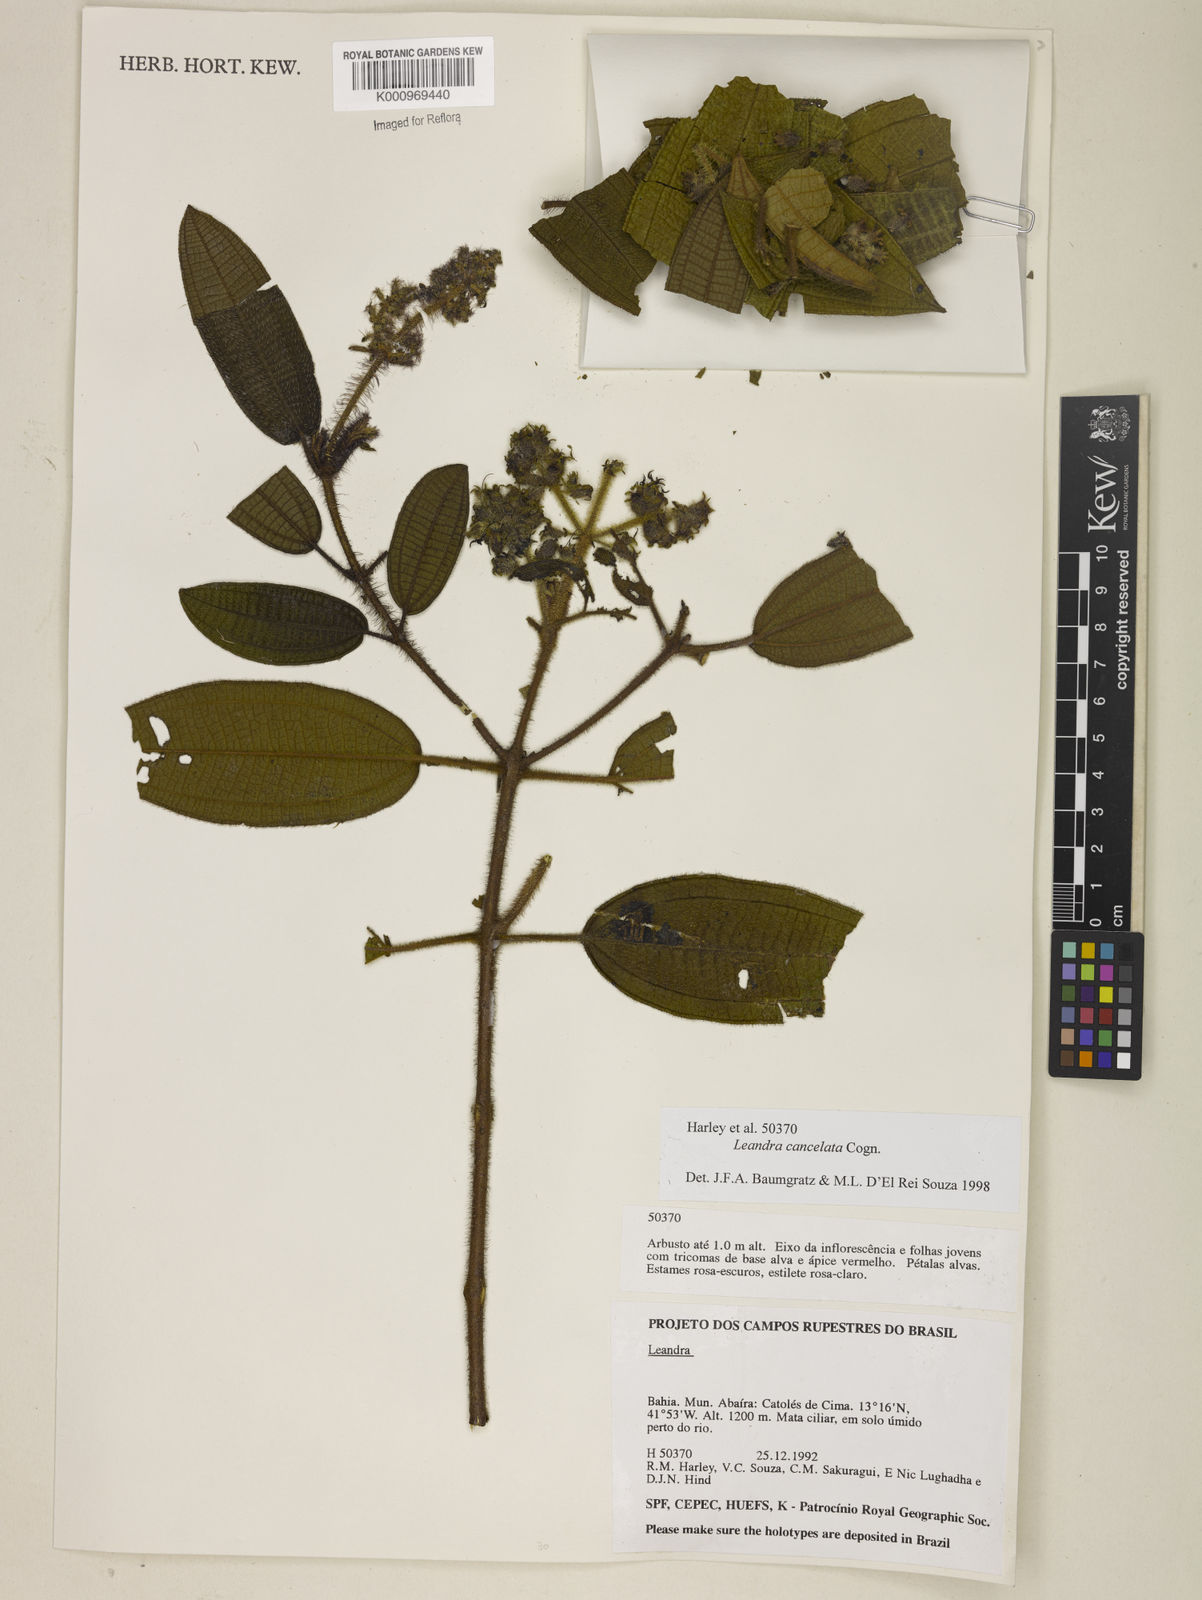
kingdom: Plantae
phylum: Tracheophyta
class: Magnoliopsida
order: Myrtales
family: Melastomataceae
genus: Miconia
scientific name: Miconia cancellata
